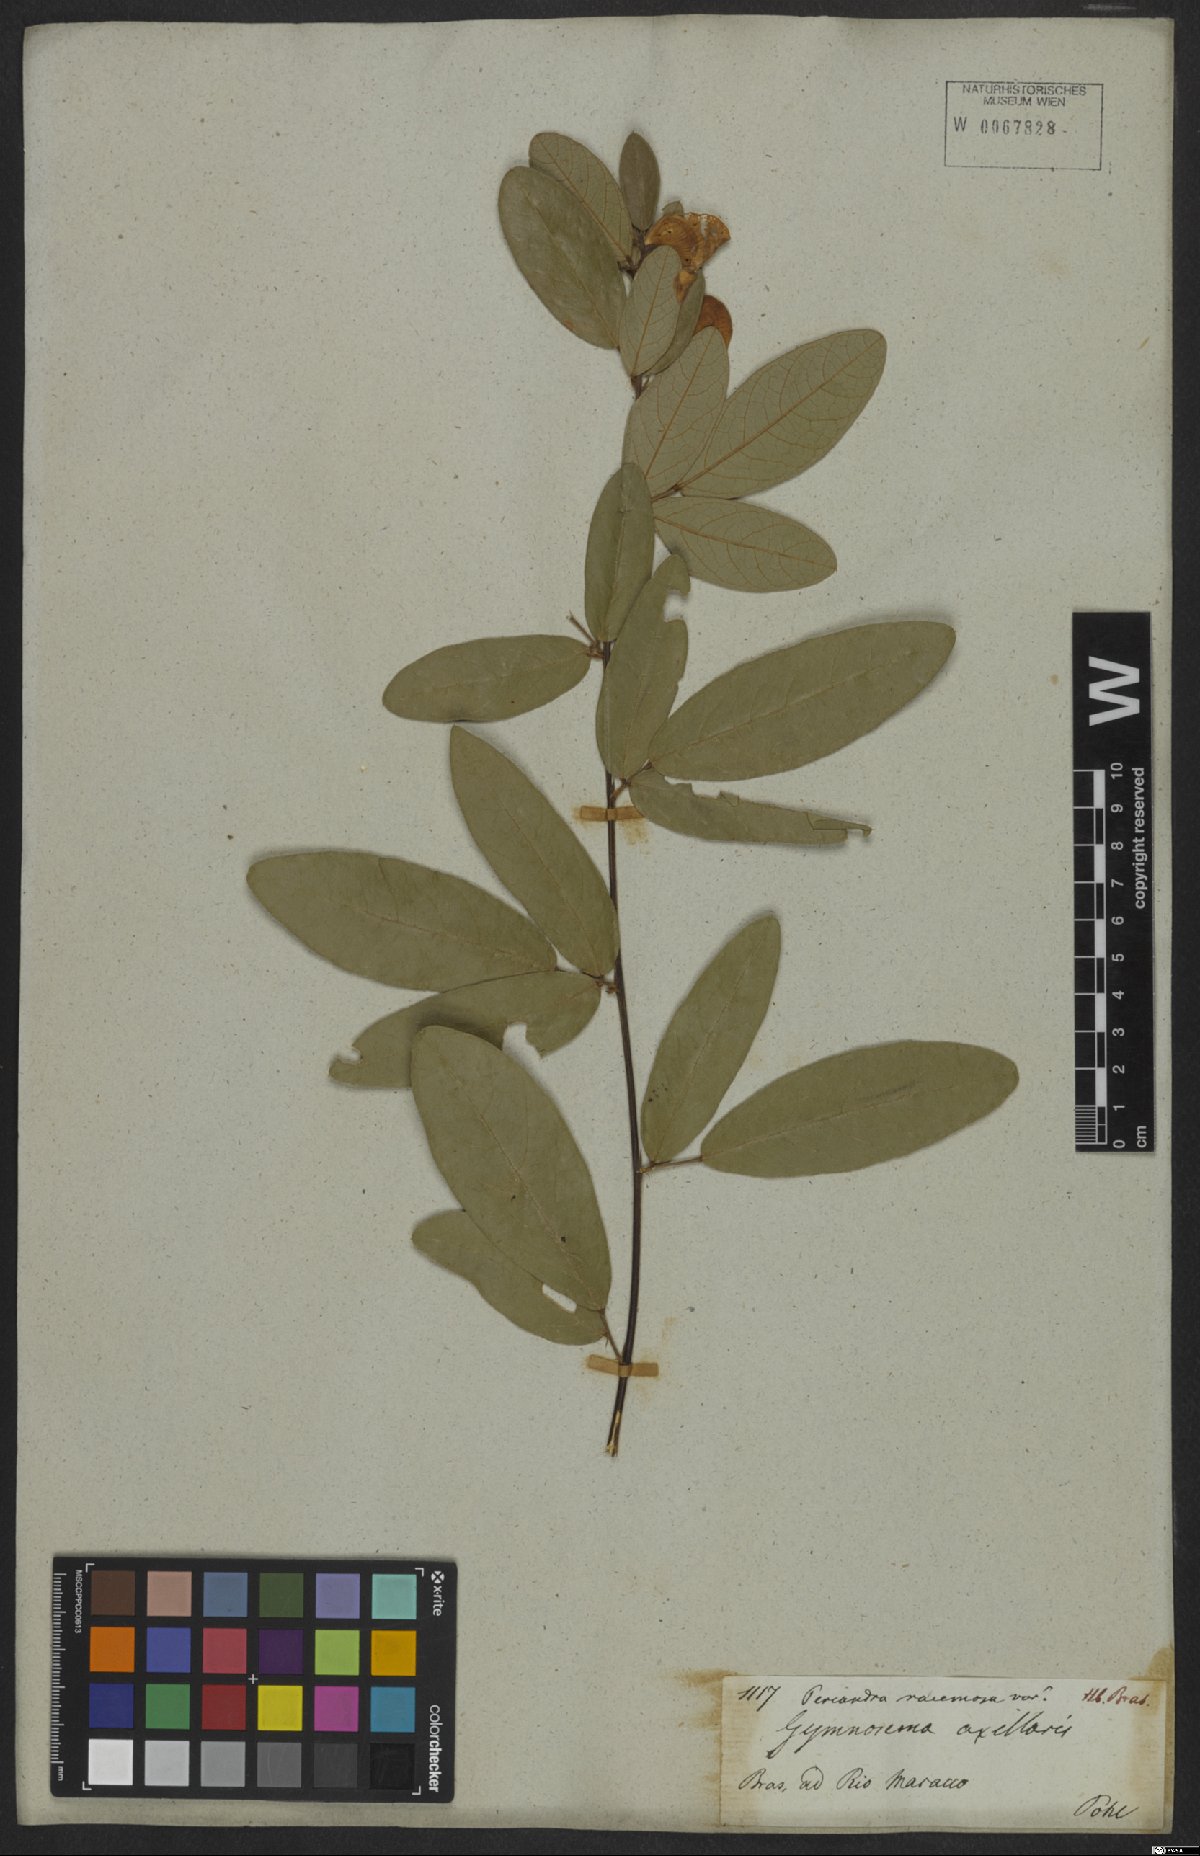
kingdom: Plantae
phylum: Tracheophyta
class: Magnoliopsida
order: Fabales
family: Fabaceae
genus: Periandra
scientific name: Periandra mediterranea
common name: Brazilian licorice
